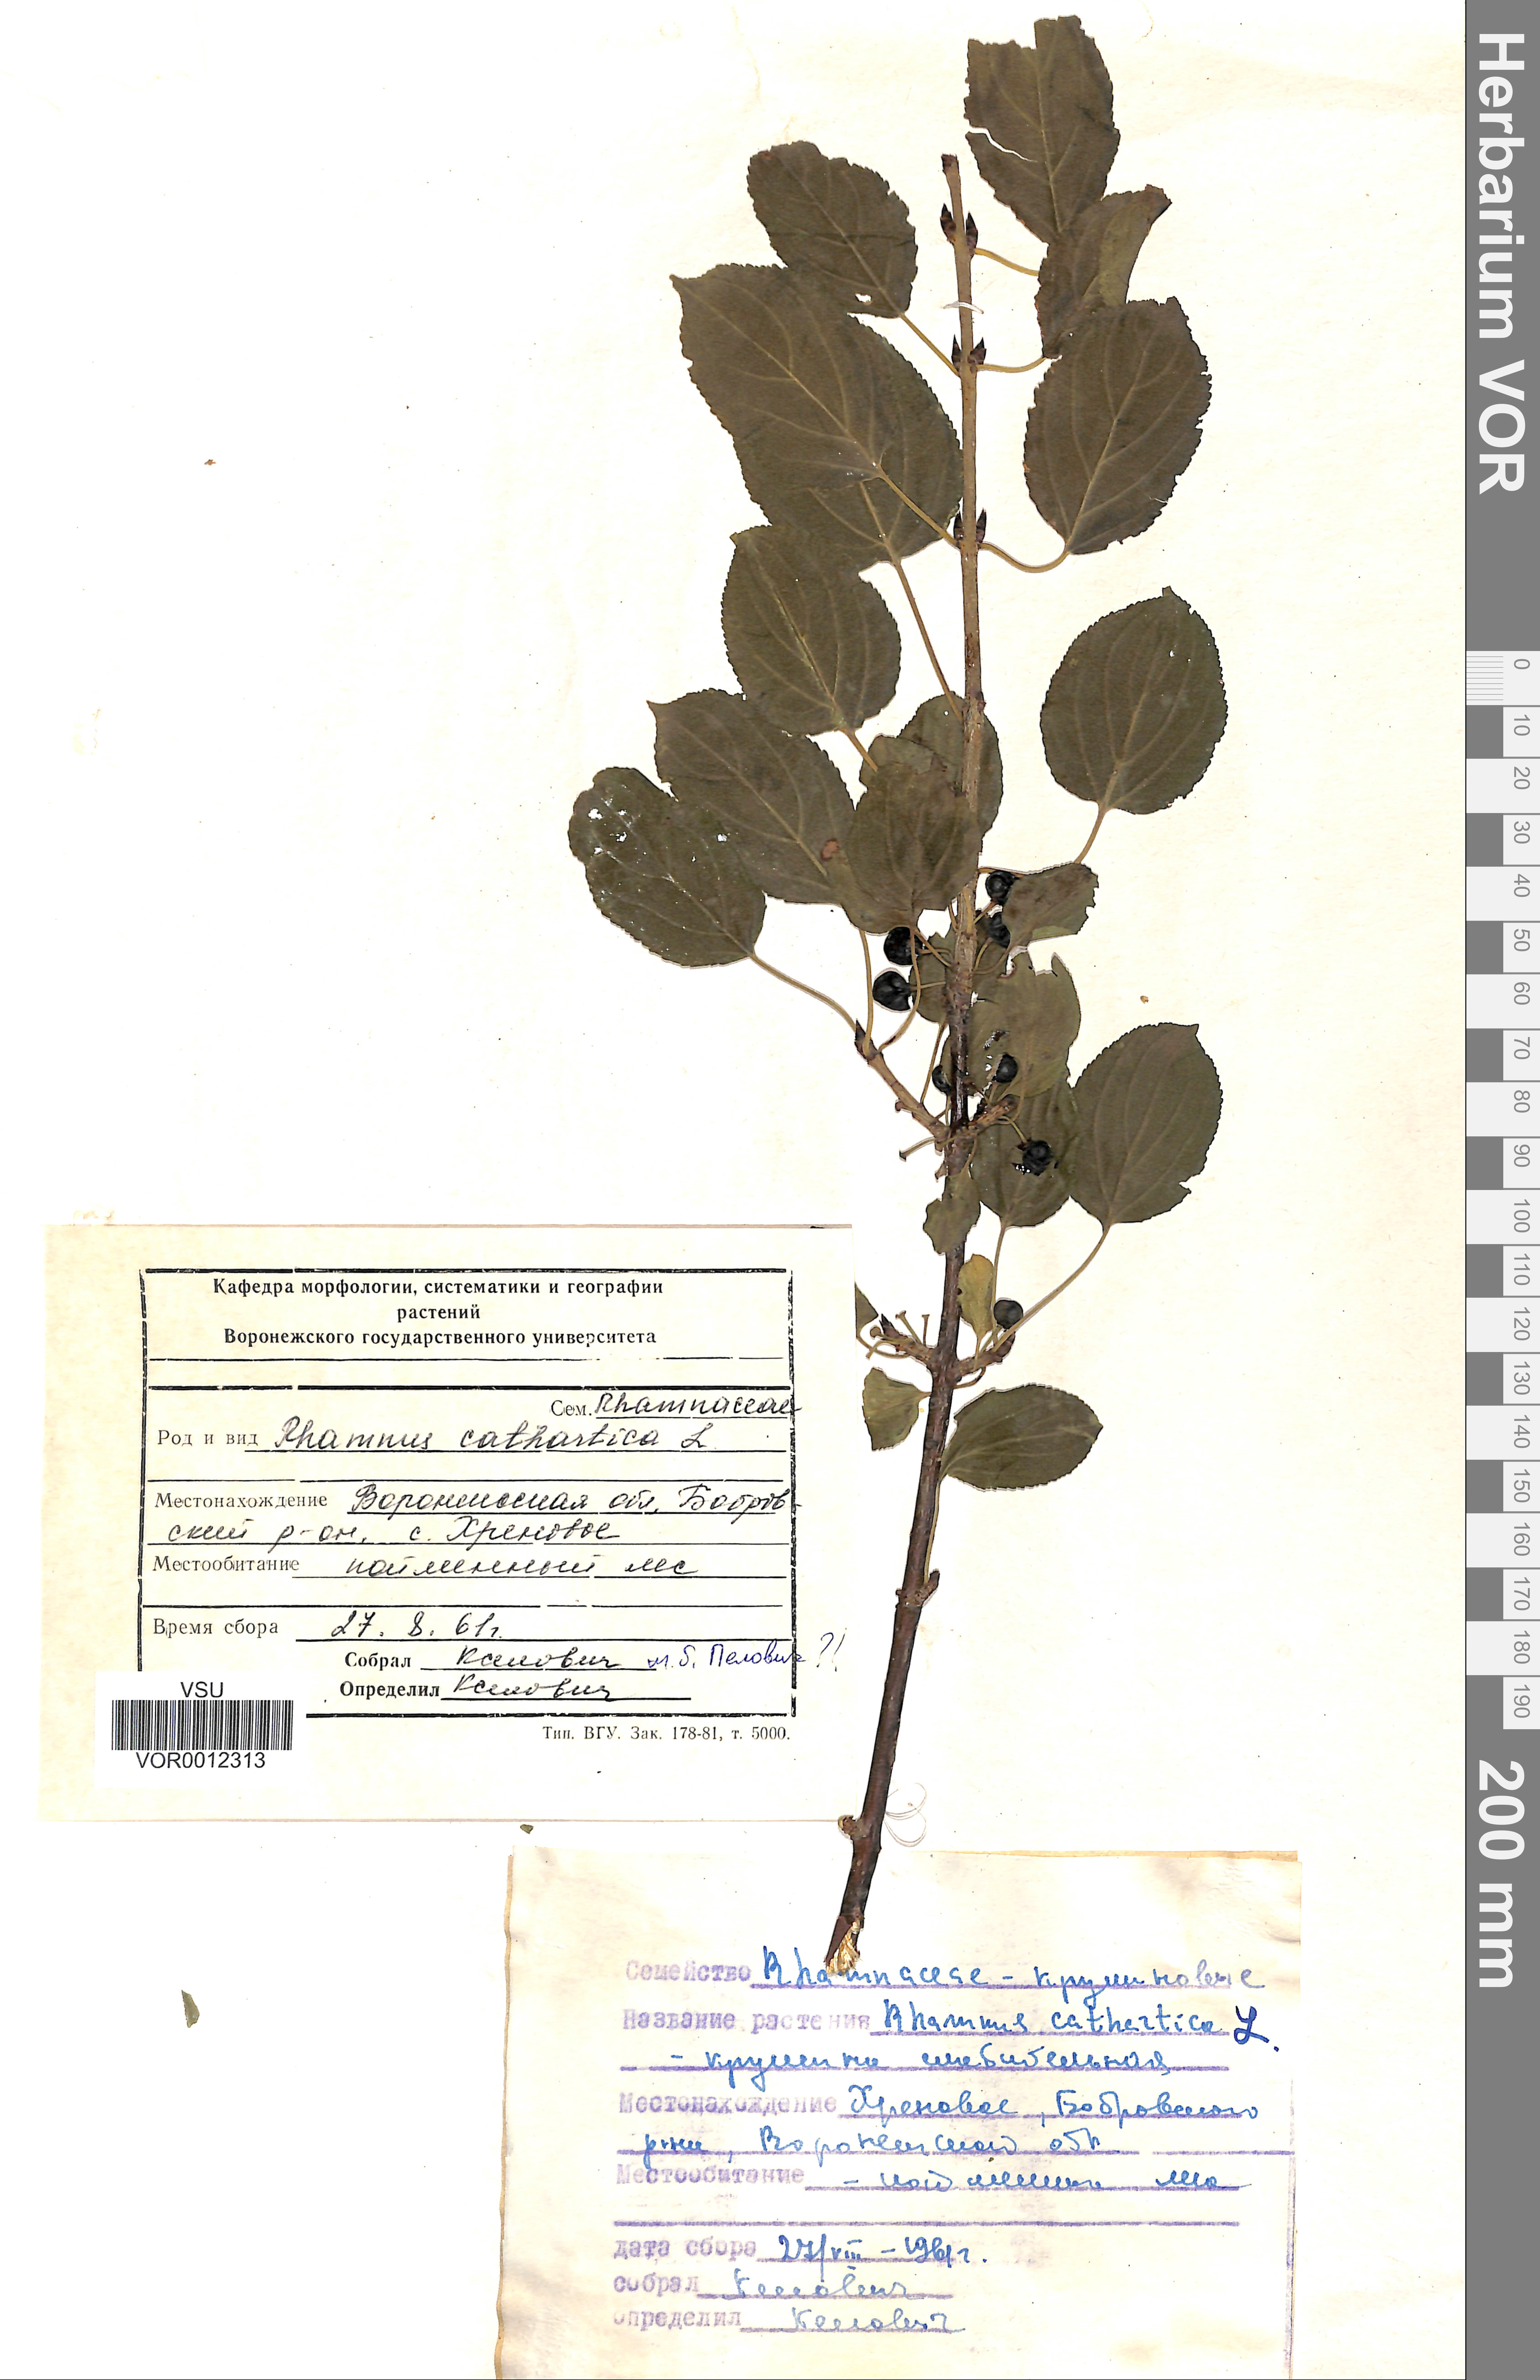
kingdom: Plantae
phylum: Tracheophyta
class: Magnoliopsida
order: Rosales
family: Rhamnaceae
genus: Rhamnus
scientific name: Rhamnus cathartica
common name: Common buckthorn
